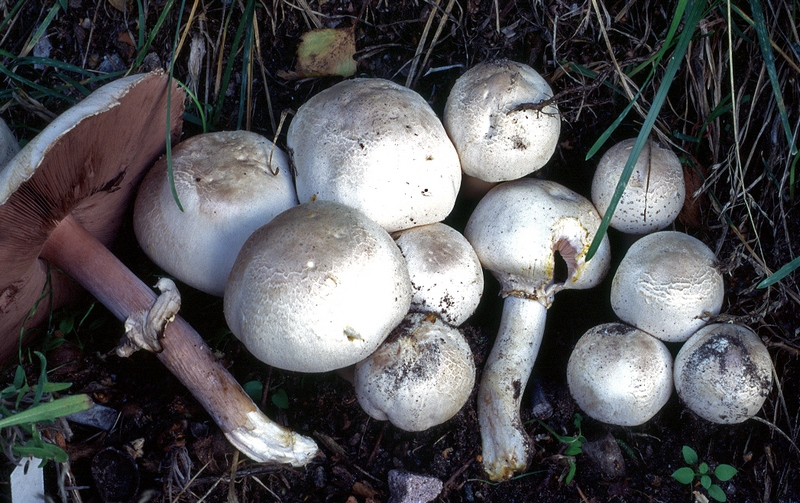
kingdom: Fungi
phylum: Basidiomycota
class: Agaricomycetes
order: Agaricales
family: Agaricaceae
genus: Agaricus
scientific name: Agaricus xanthodermus
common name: karbol-champignon
